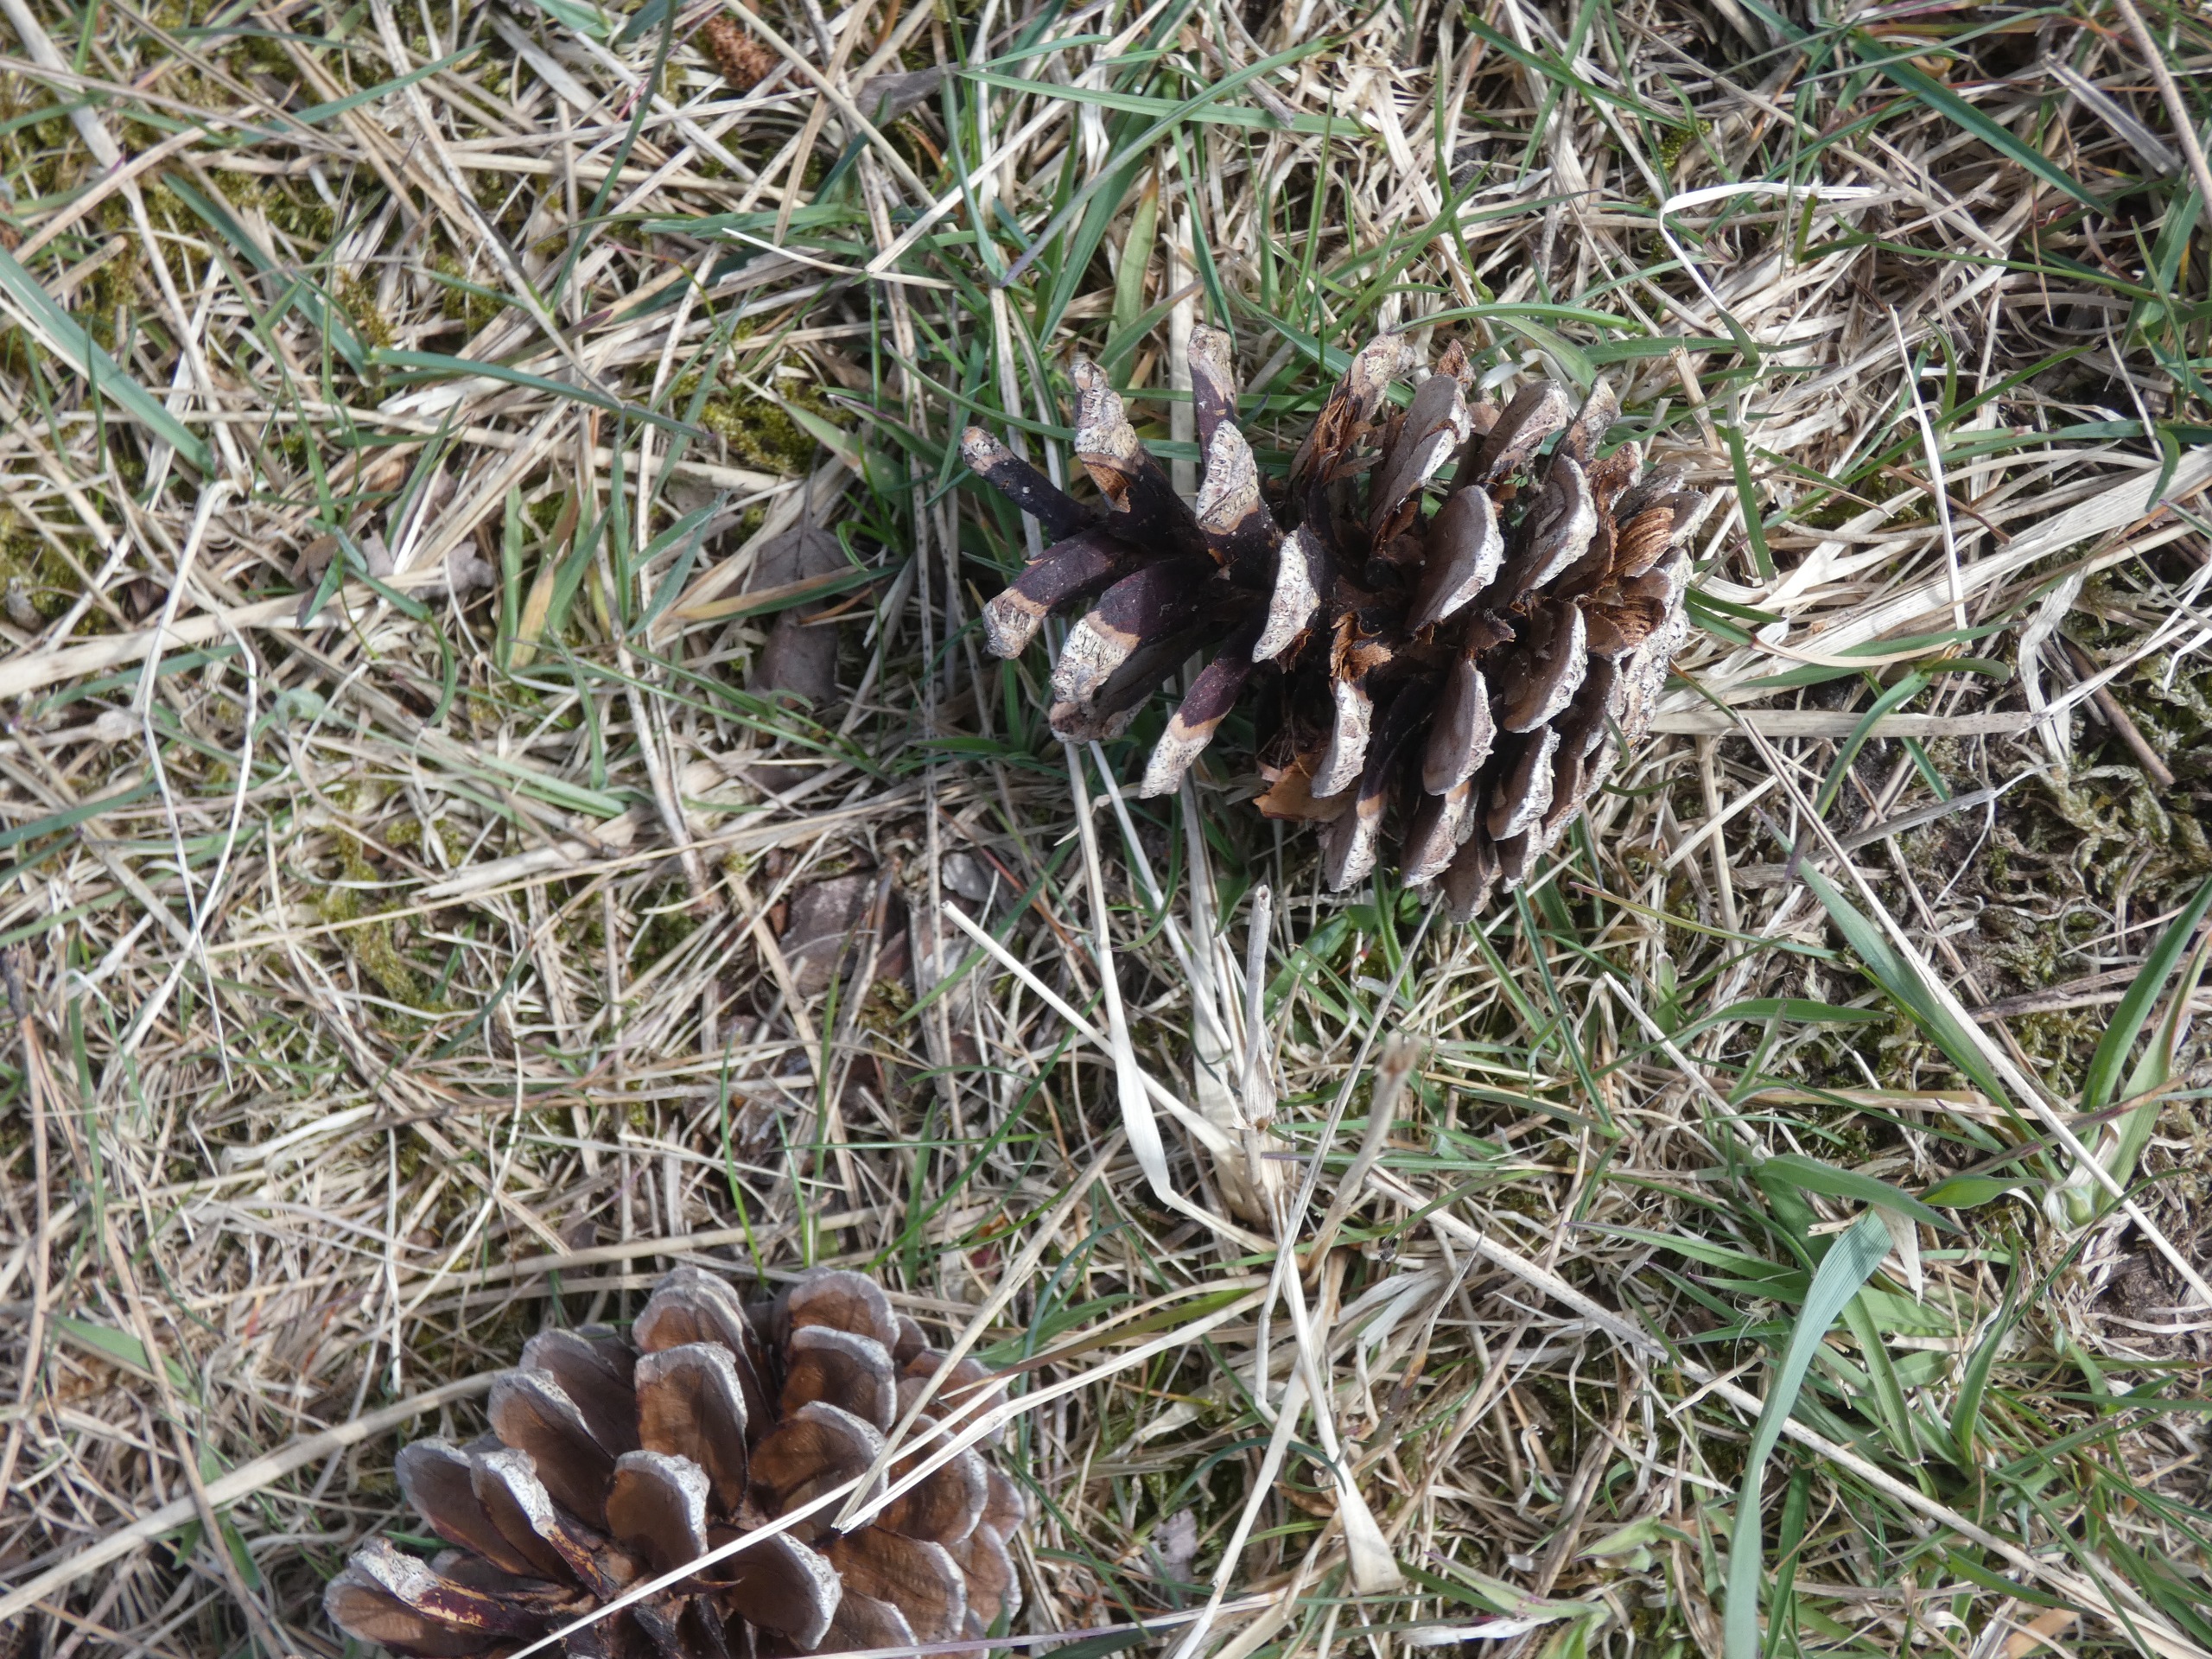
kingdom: Plantae
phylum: Tracheophyta
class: Pinopsida
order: Pinales
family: Pinaceae
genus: Pinus
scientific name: Pinus sylvestris
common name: Skov-fyr
